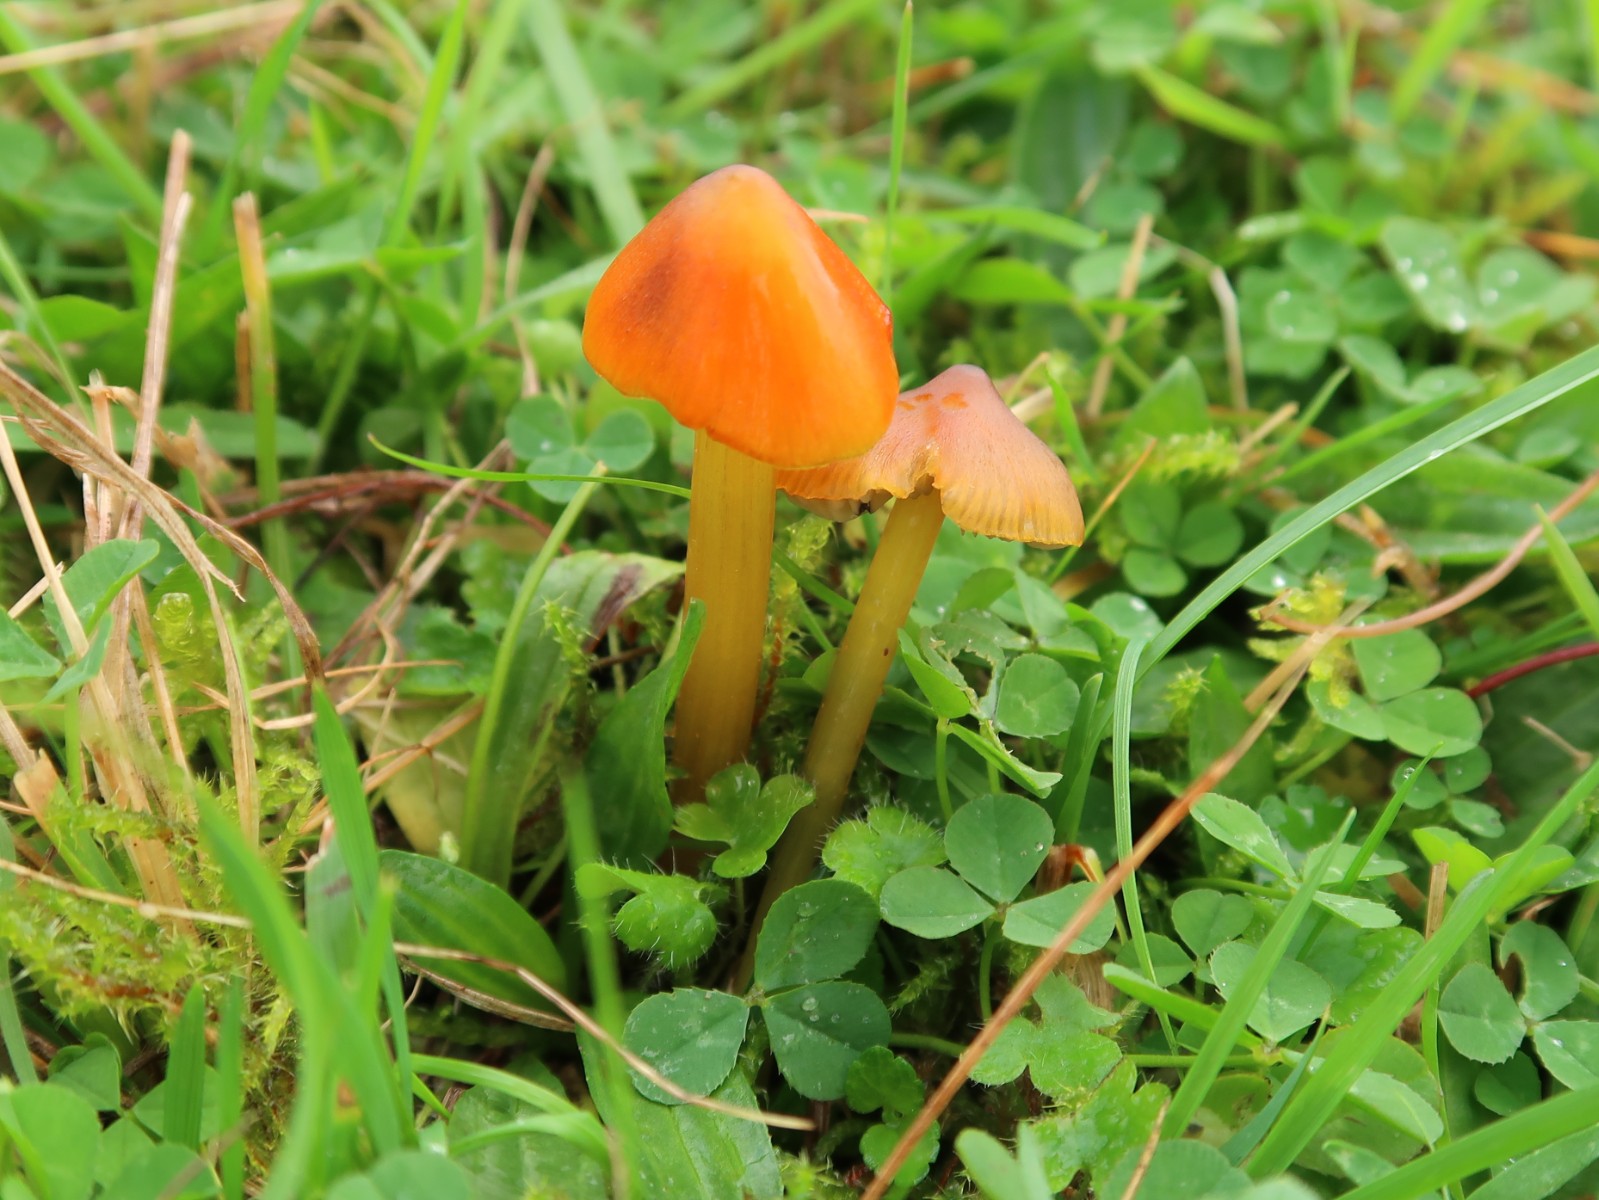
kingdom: Fungi
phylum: Basidiomycota
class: Agaricomycetes
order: Agaricales
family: Hygrophoraceae
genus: Hygrocybe
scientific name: Hygrocybe conica
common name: kegle-vokshat
